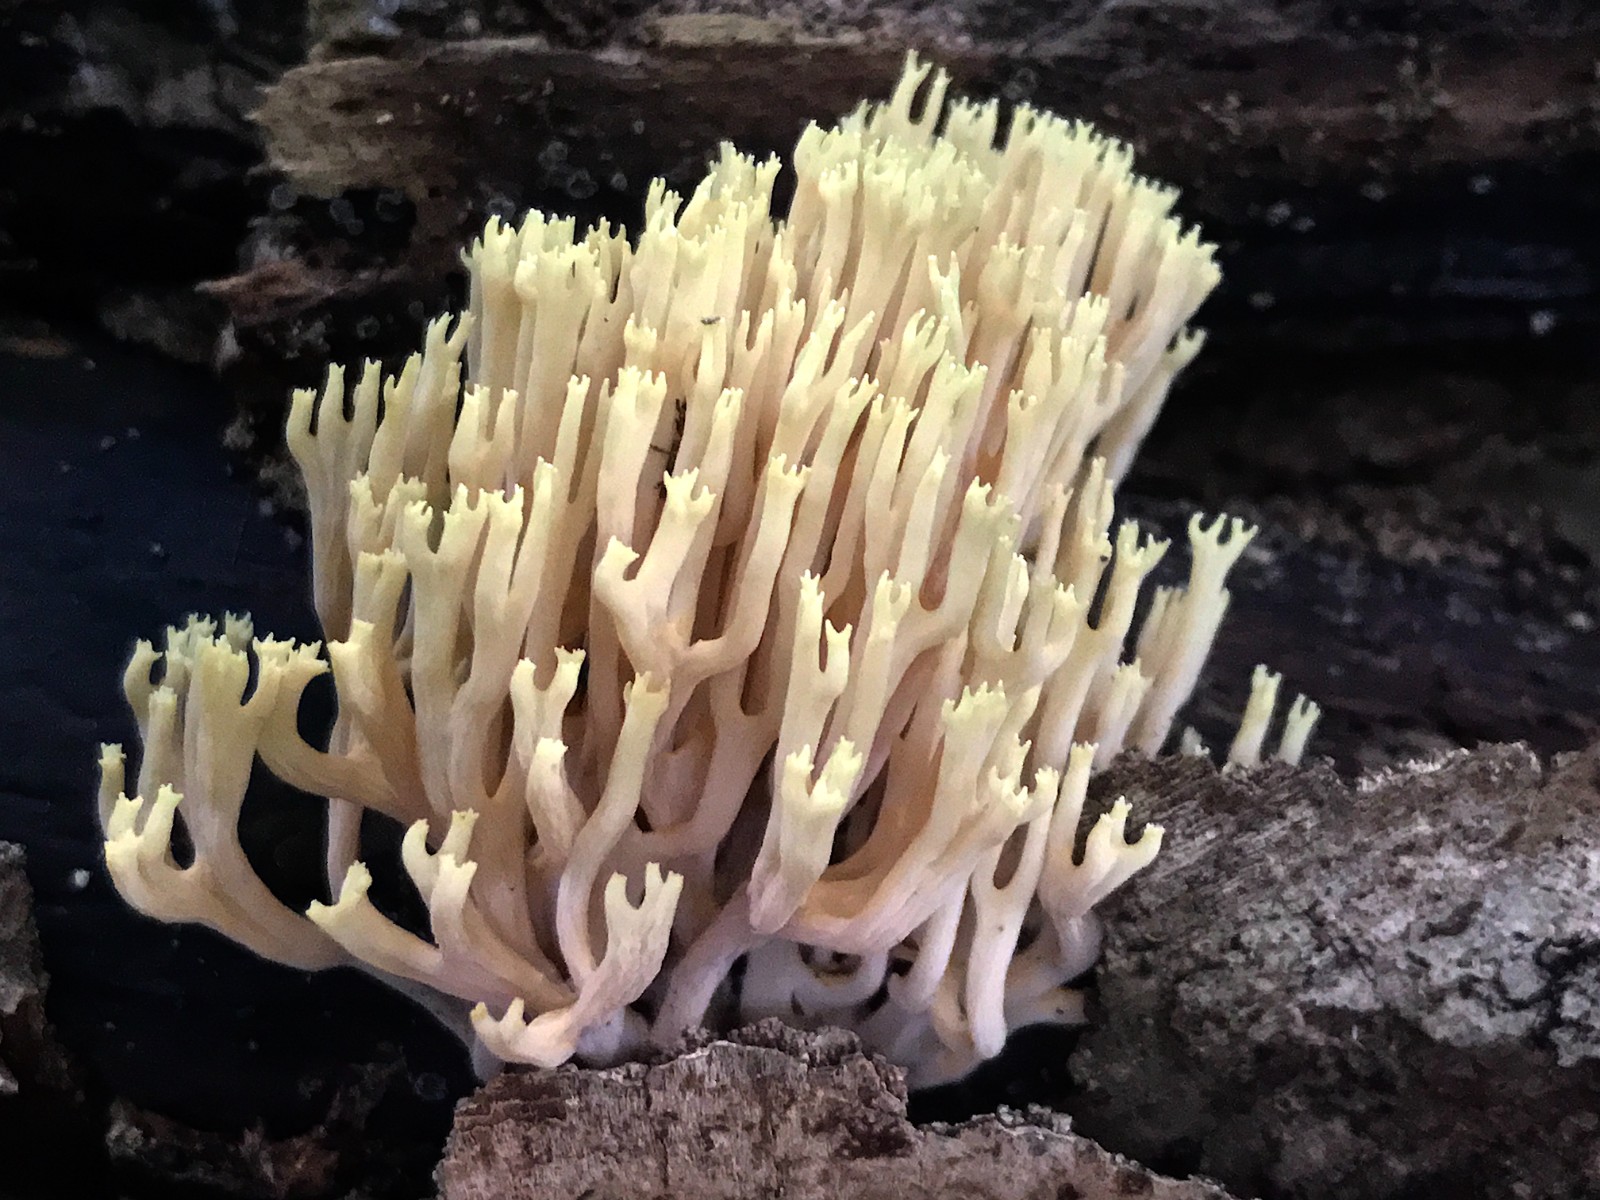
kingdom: Fungi
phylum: Basidiomycota
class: Agaricomycetes
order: Gomphales
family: Gomphaceae
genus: Ramaria
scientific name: Ramaria stricta
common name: rank koralsvamp
